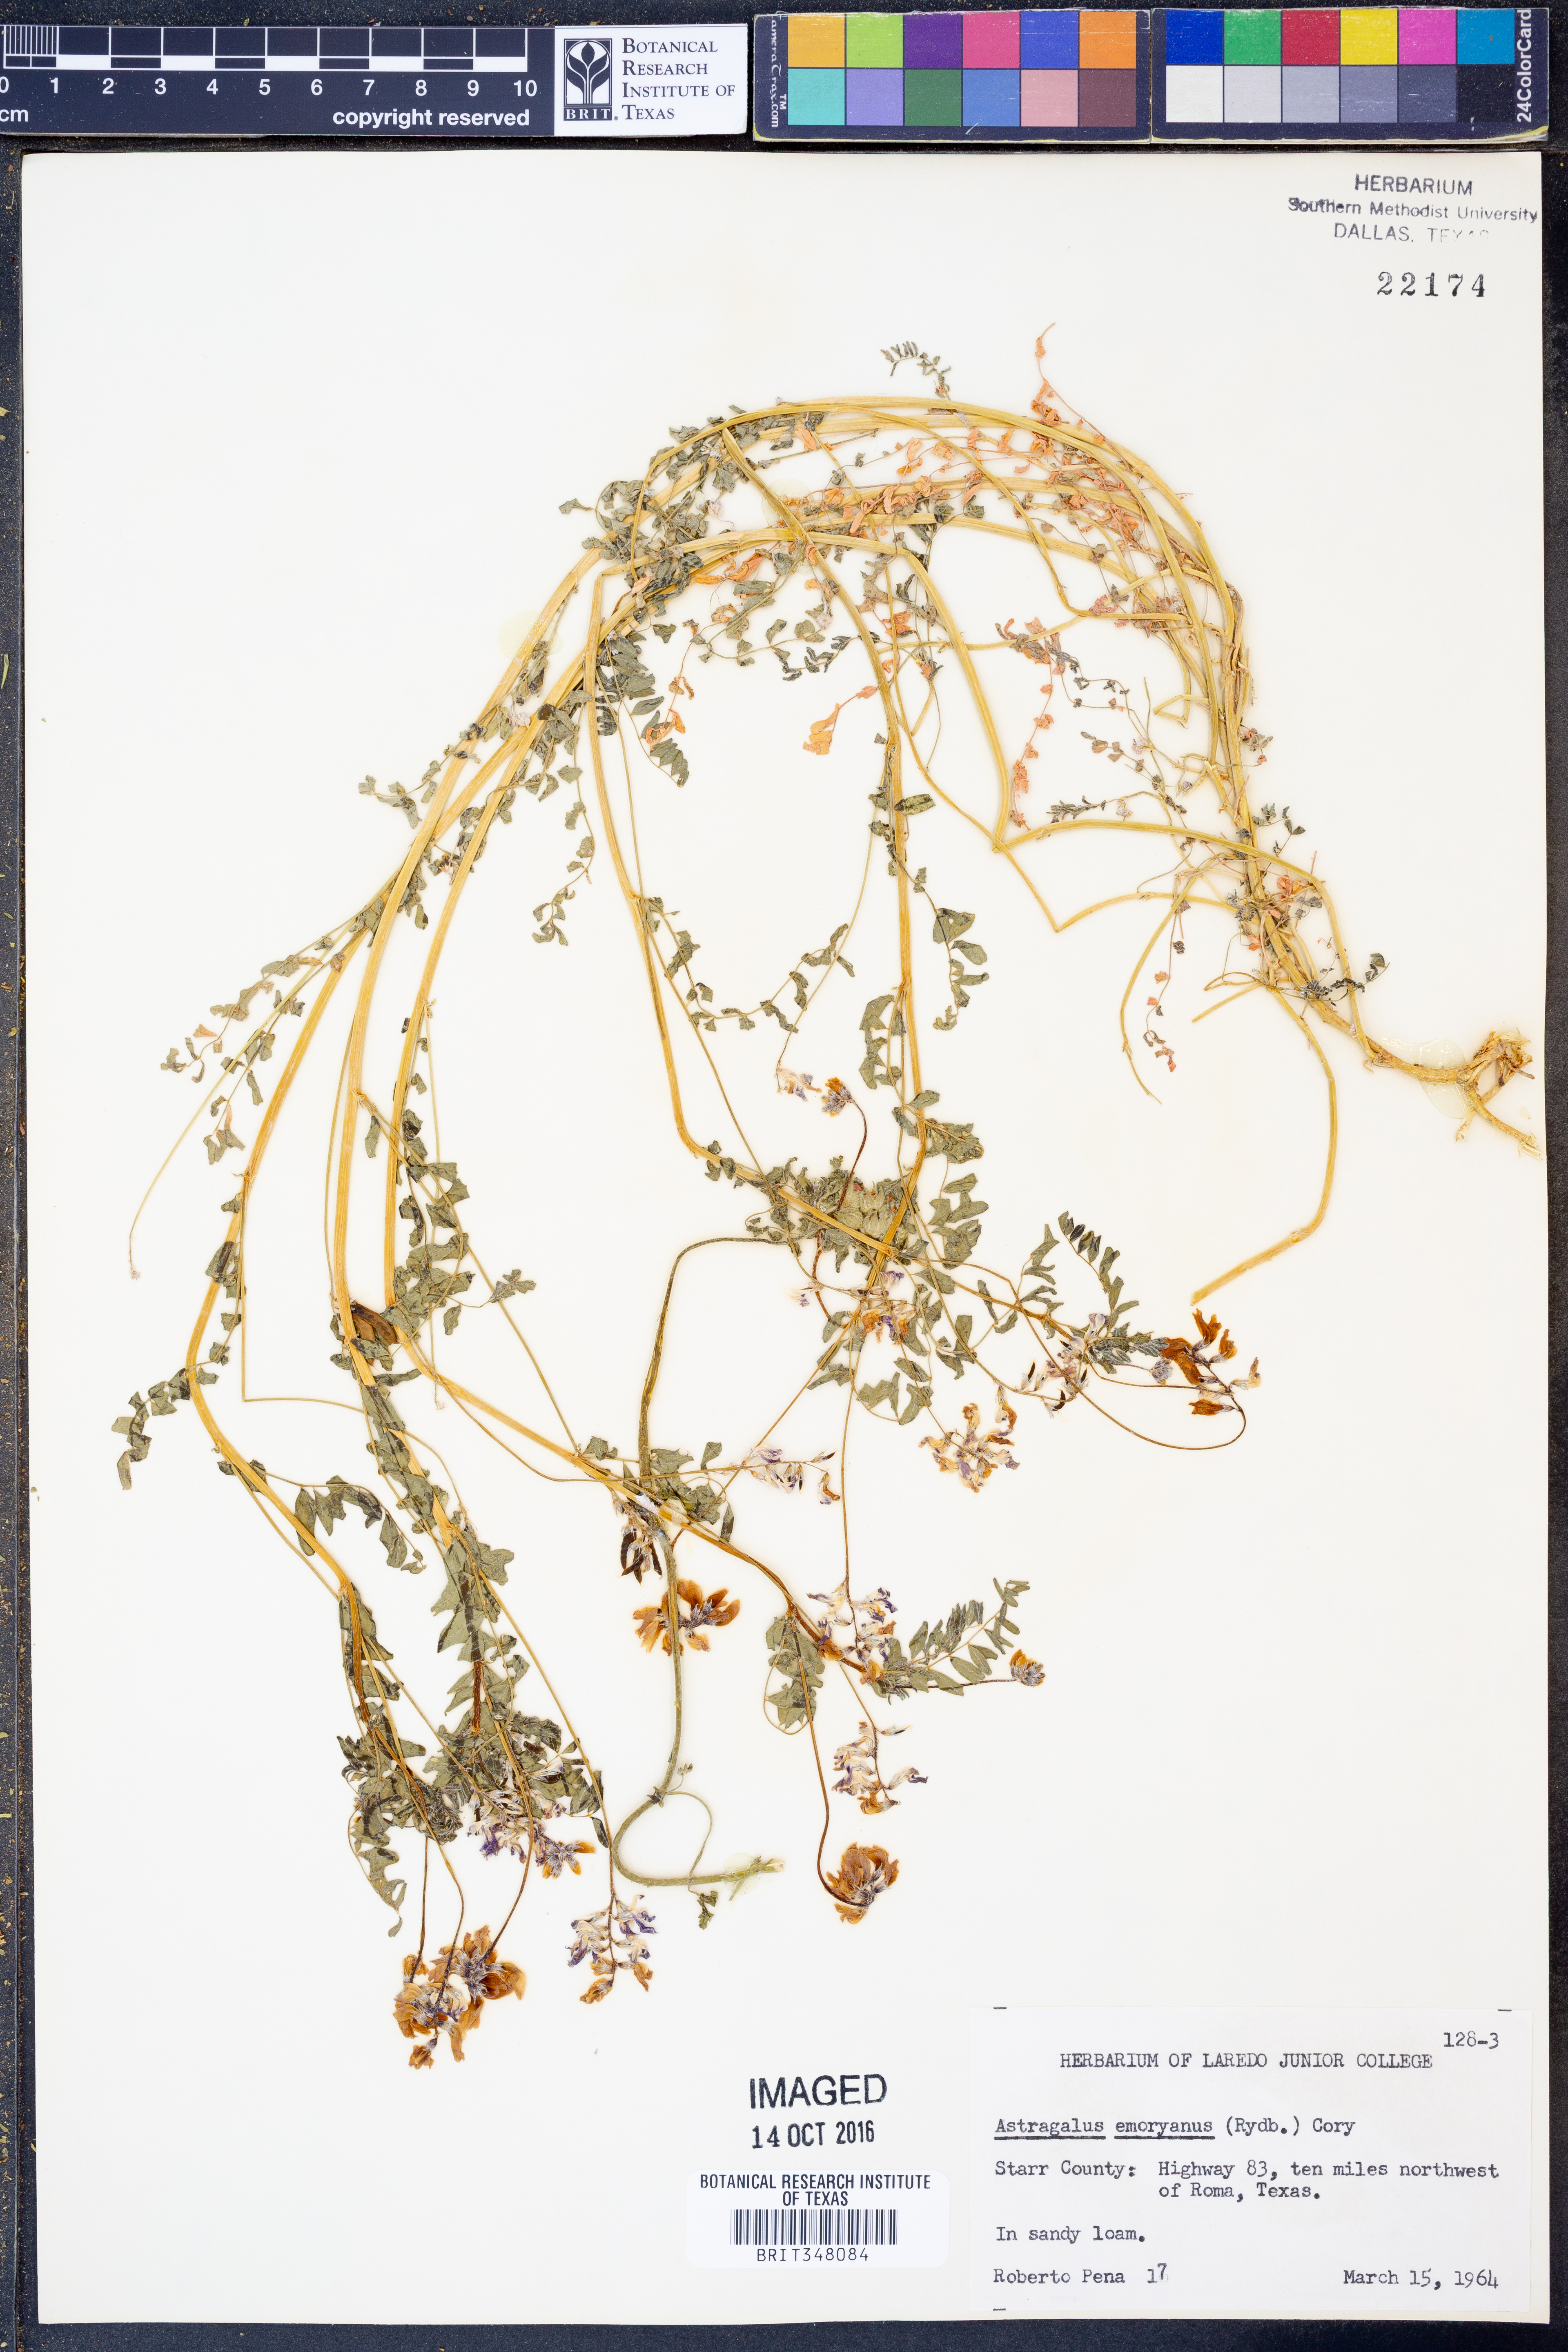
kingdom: Plantae
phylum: Tracheophyta
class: Magnoliopsida
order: Fabales
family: Fabaceae
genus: Astragalus
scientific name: Astragalus emoryanus
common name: Emory's milk-vetch
